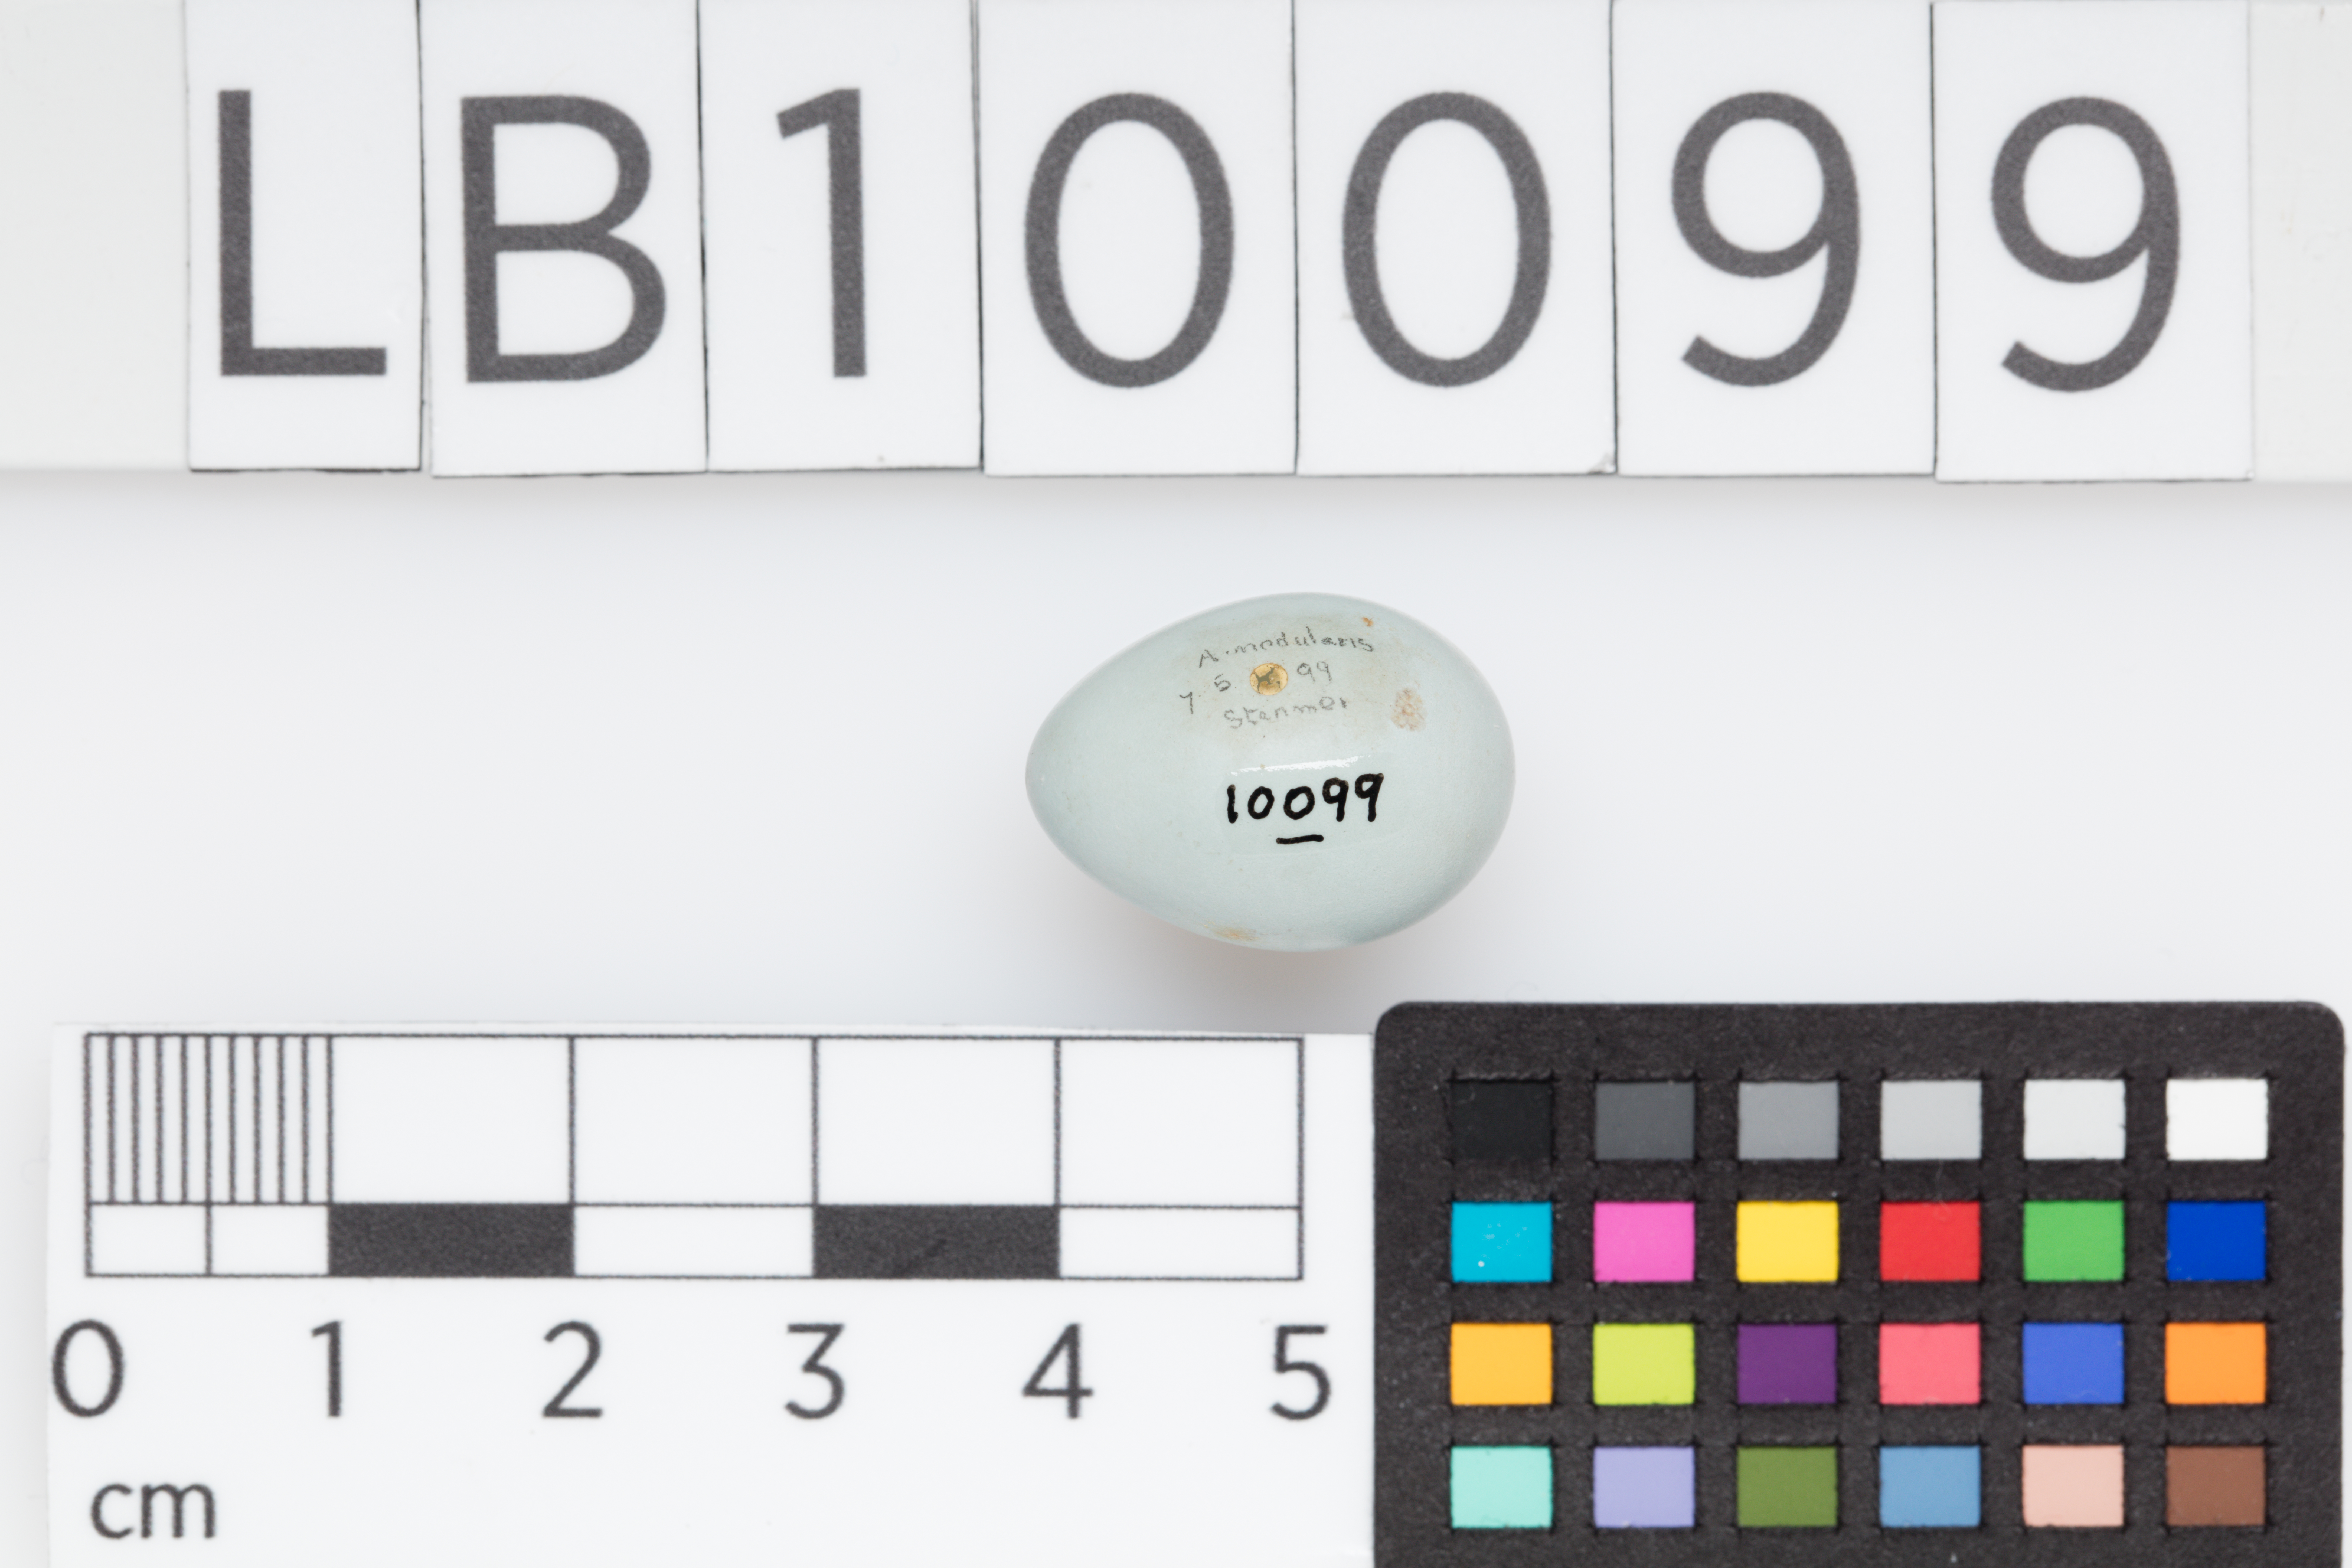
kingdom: Animalia
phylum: Chordata
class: Aves
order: Passeriformes
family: Prunellidae
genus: Prunella
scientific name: Prunella modularis
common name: Dunnock
